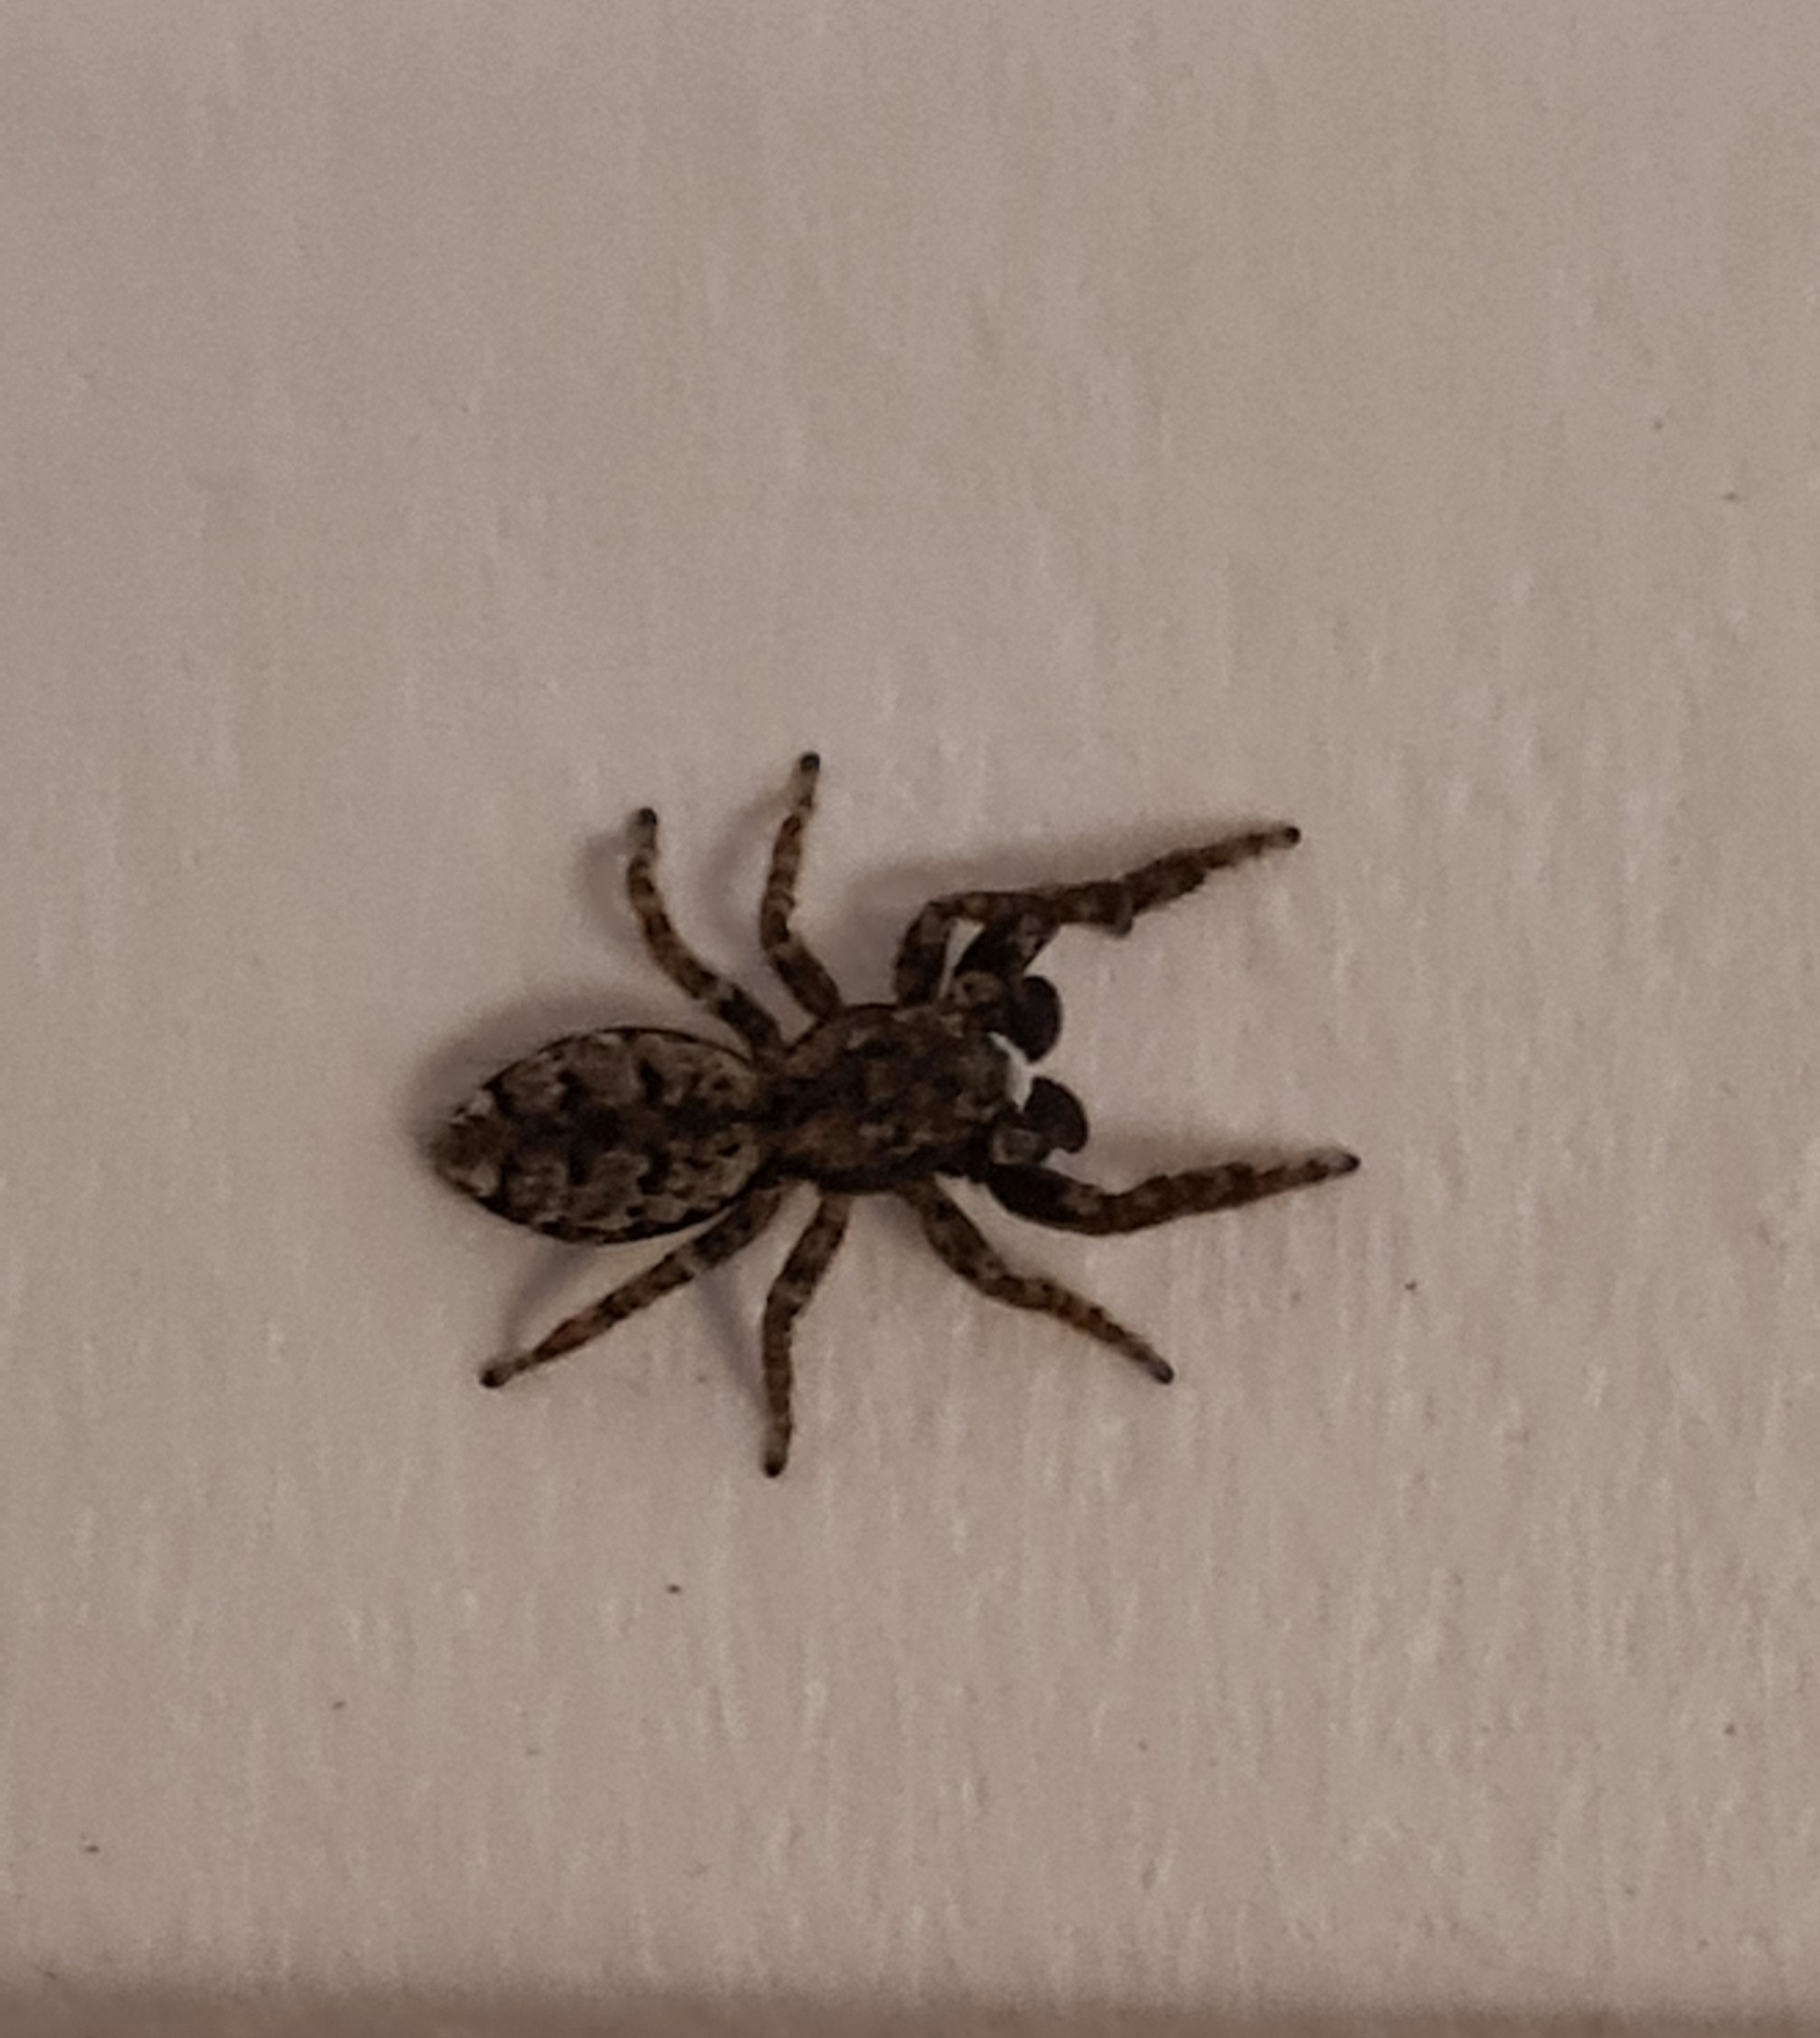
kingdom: Animalia
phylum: Arthropoda
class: Arachnida
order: Araneae
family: Salticidae
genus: Marpissa
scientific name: Marpissa muscosa
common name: Stor springedderkop
